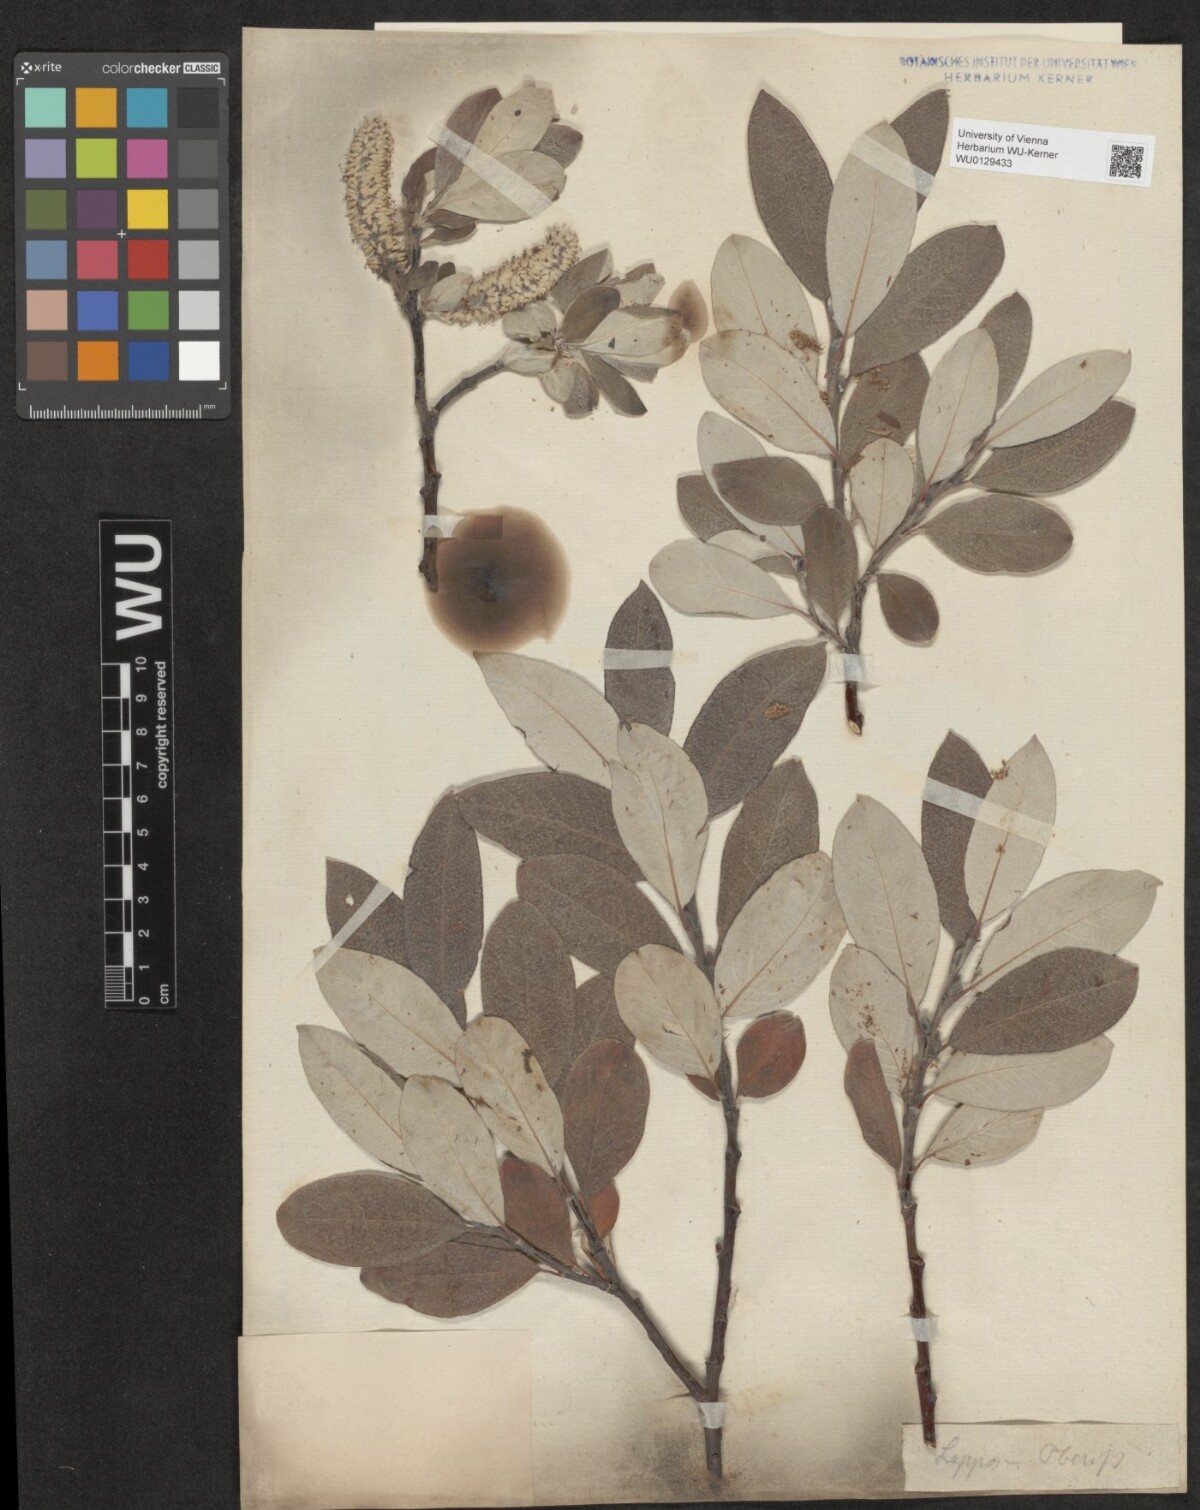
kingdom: Plantae
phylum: Tracheophyta
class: Magnoliopsida
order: Malpighiales
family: Salicaceae
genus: Salix
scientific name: Salix helvetica
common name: Swiss willow
